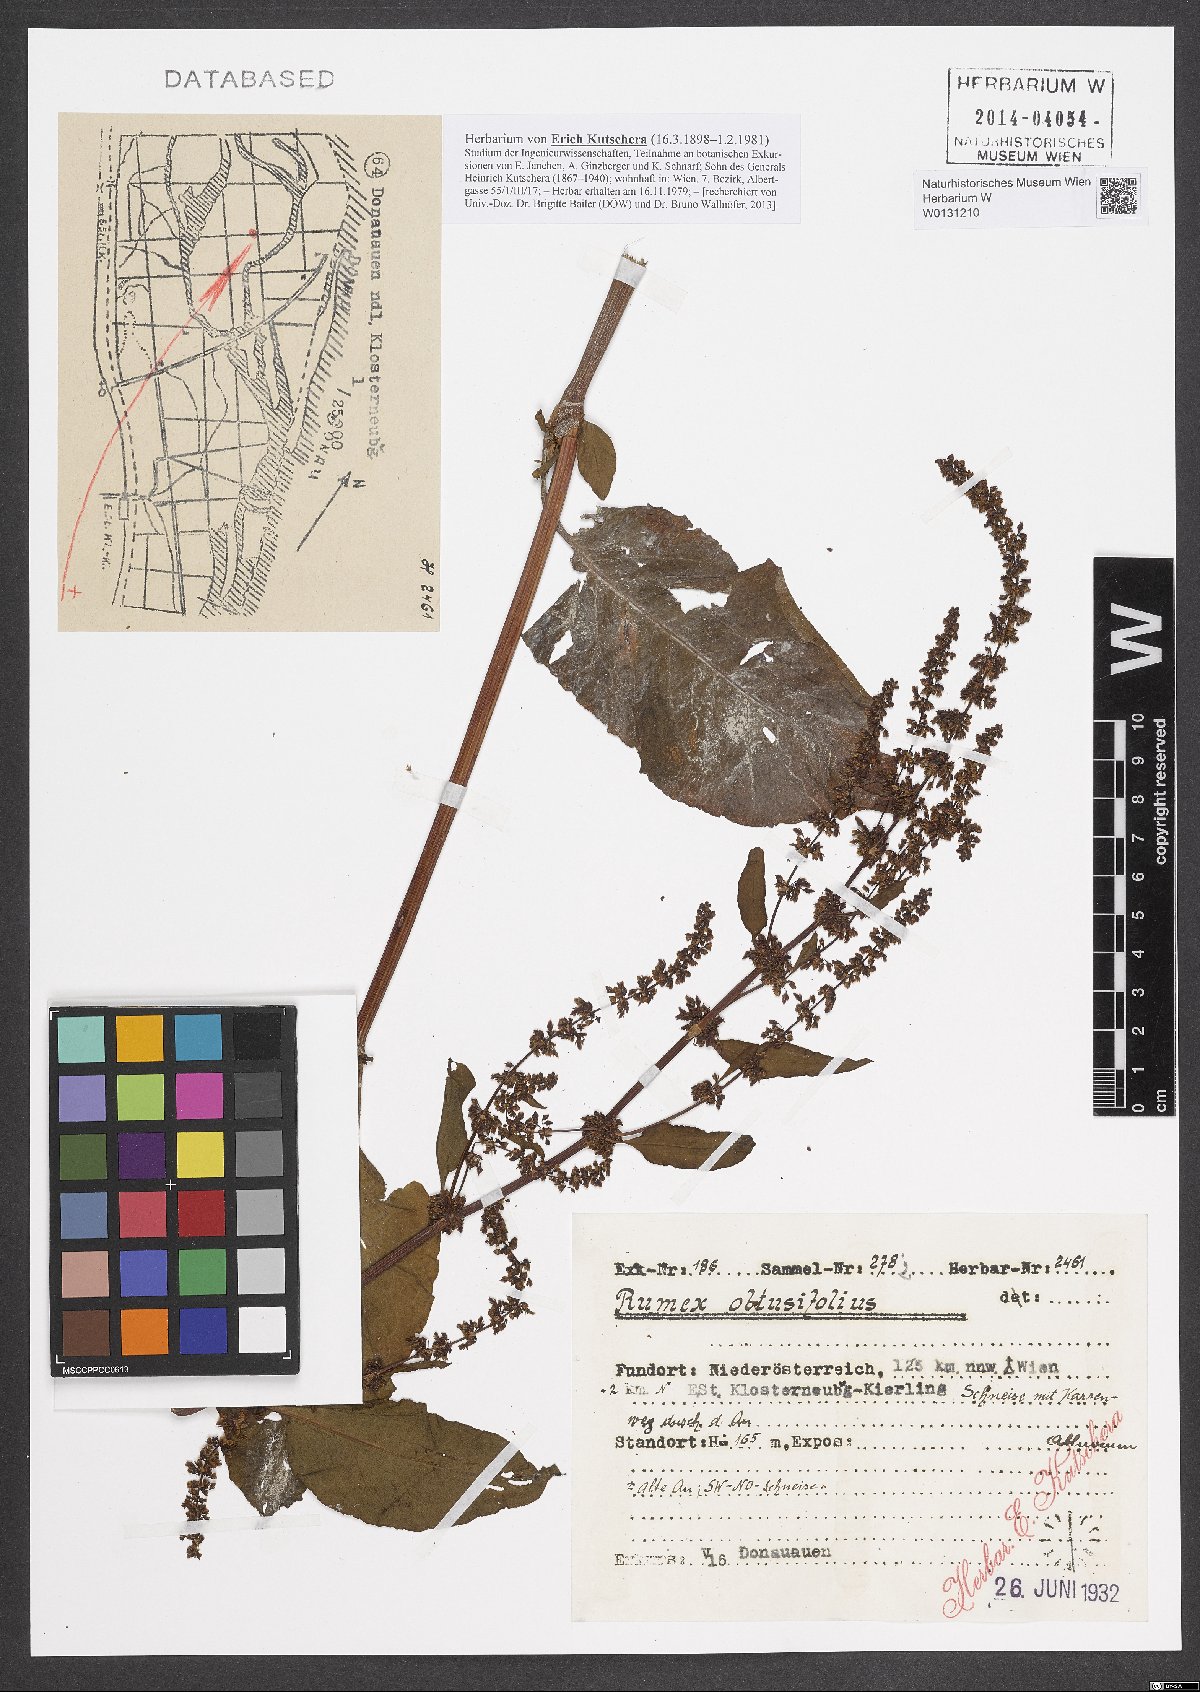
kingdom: Plantae
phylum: Tracheophyta
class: Magnoliopsida
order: Caryophyllales
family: Polygonaceae
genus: Rumex
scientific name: Rumex obtusifolius
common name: Bitter dock
